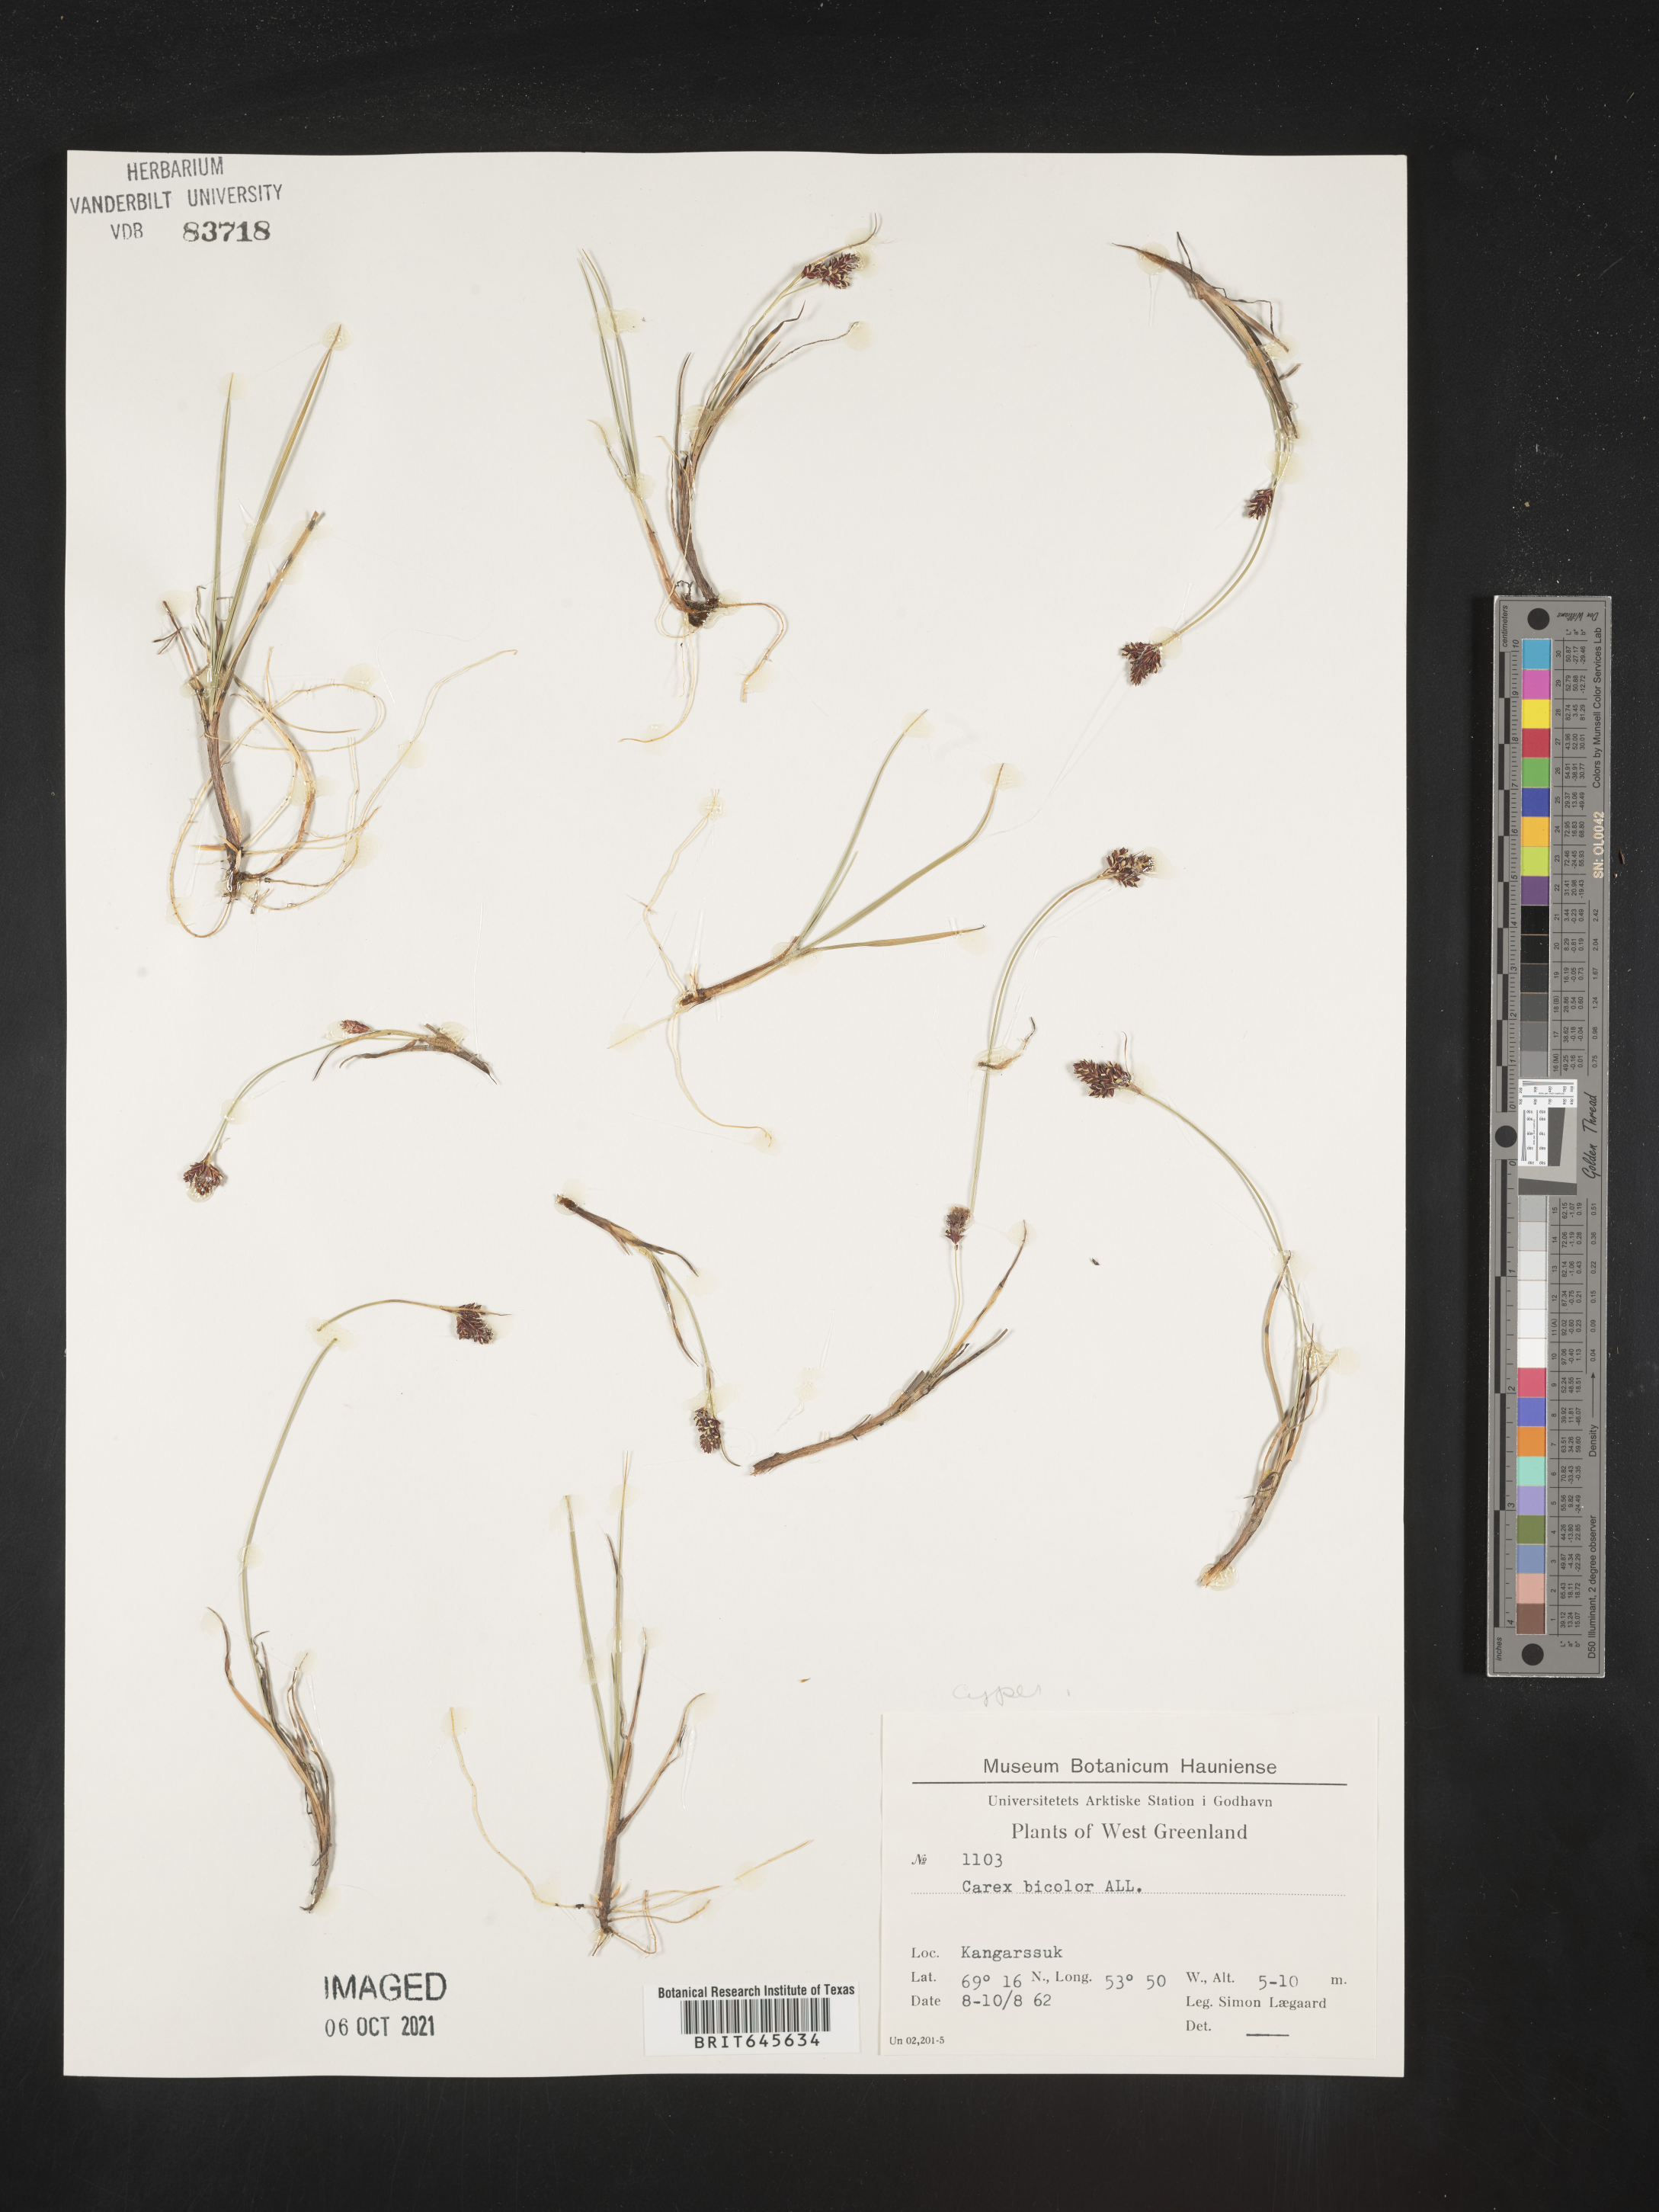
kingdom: Plantae
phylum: Tracheophyta
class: Liliopsida
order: Poales
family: Cyperaceae
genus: Carex
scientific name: Carex bicolor
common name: Bicoloured sedge
